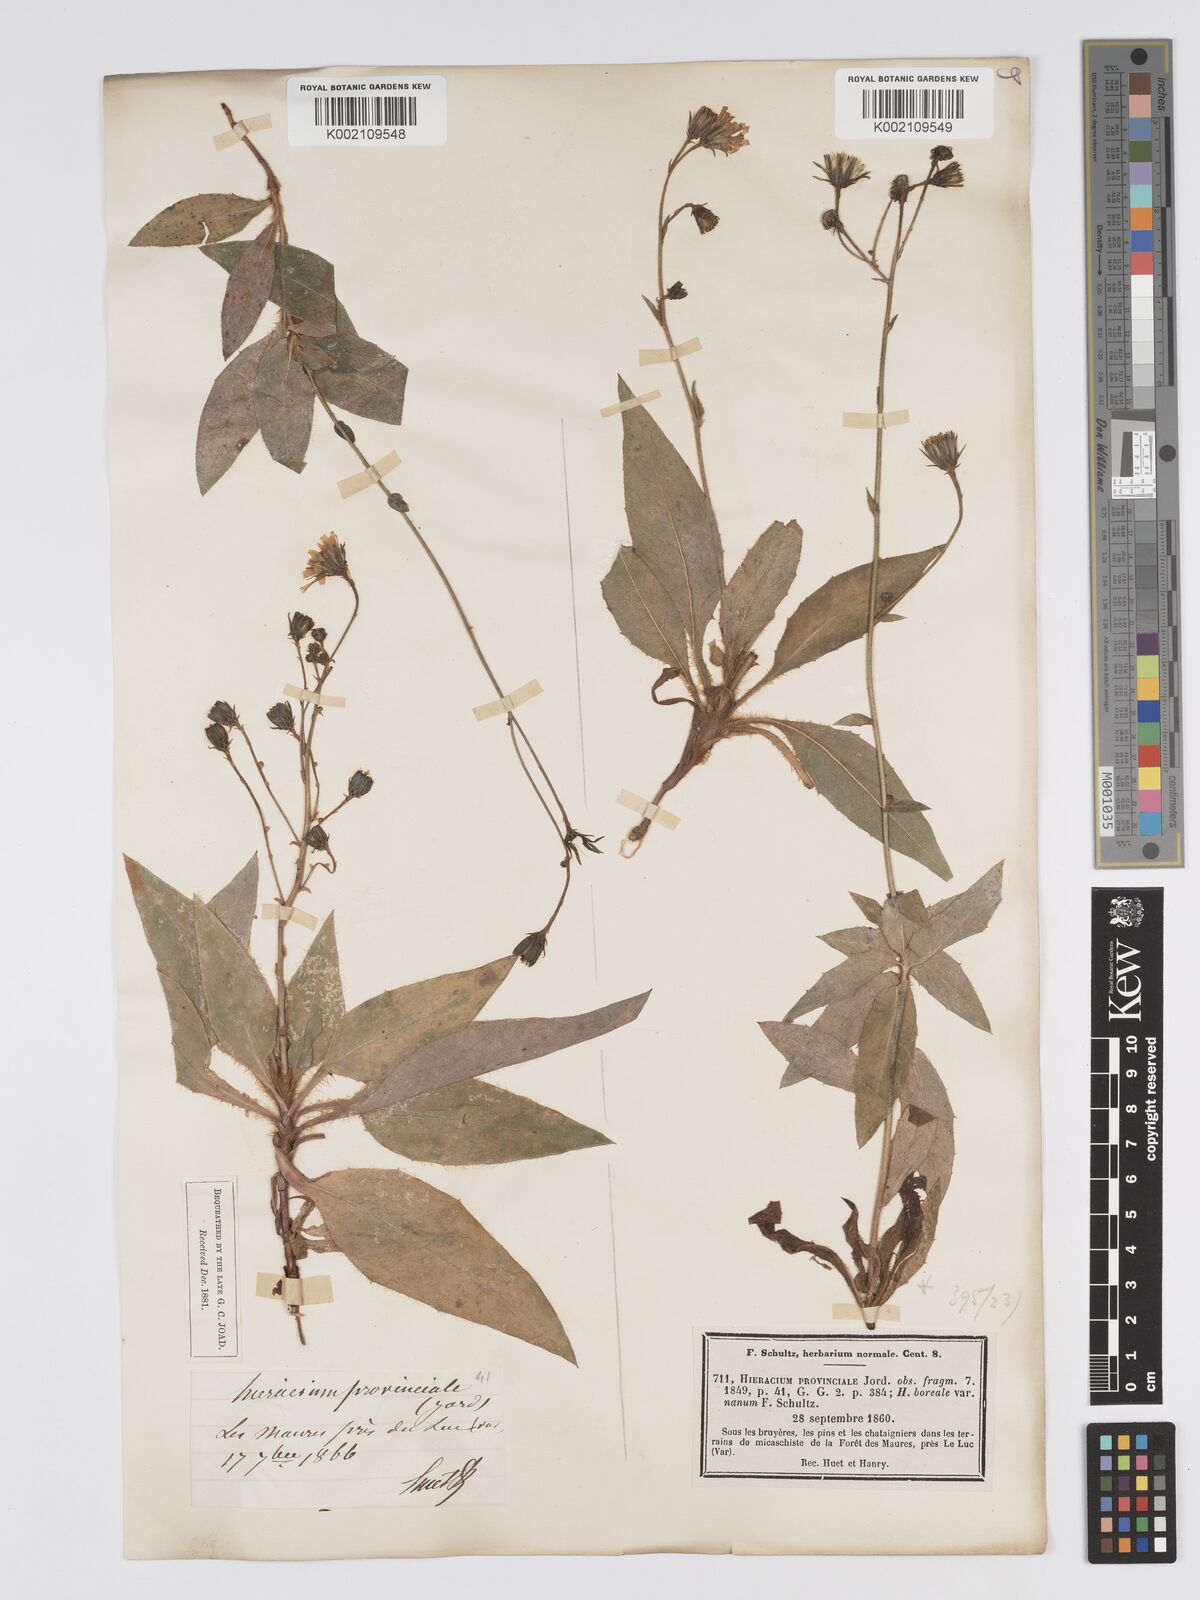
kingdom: Plantae
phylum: Tracheophyta
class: Magnoliopsida
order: Asterales
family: Asteraceae
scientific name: Asteraceae
